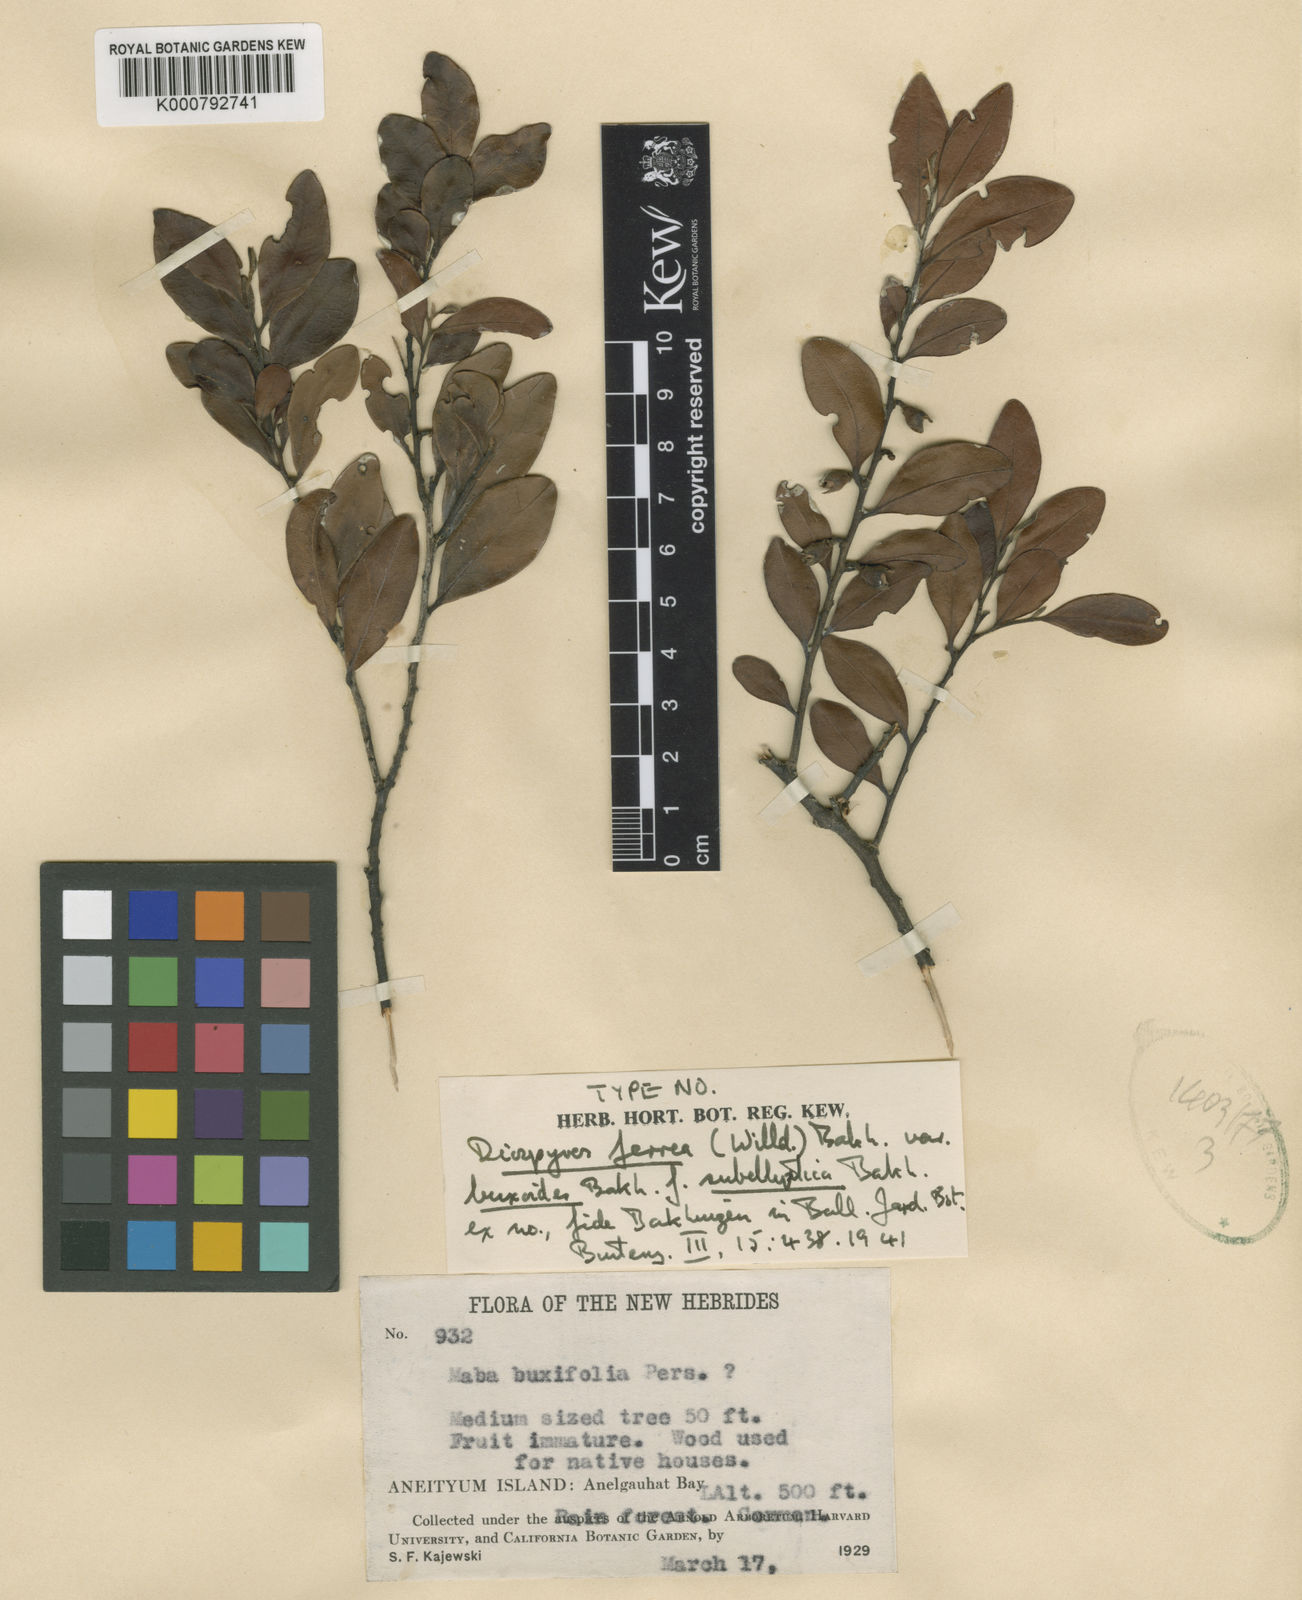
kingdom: Plantae
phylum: Tracheophyta
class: Magnoliopsida
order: Ericales
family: Ebenaceae
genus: Diospyros
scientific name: Diospyros ferrea
